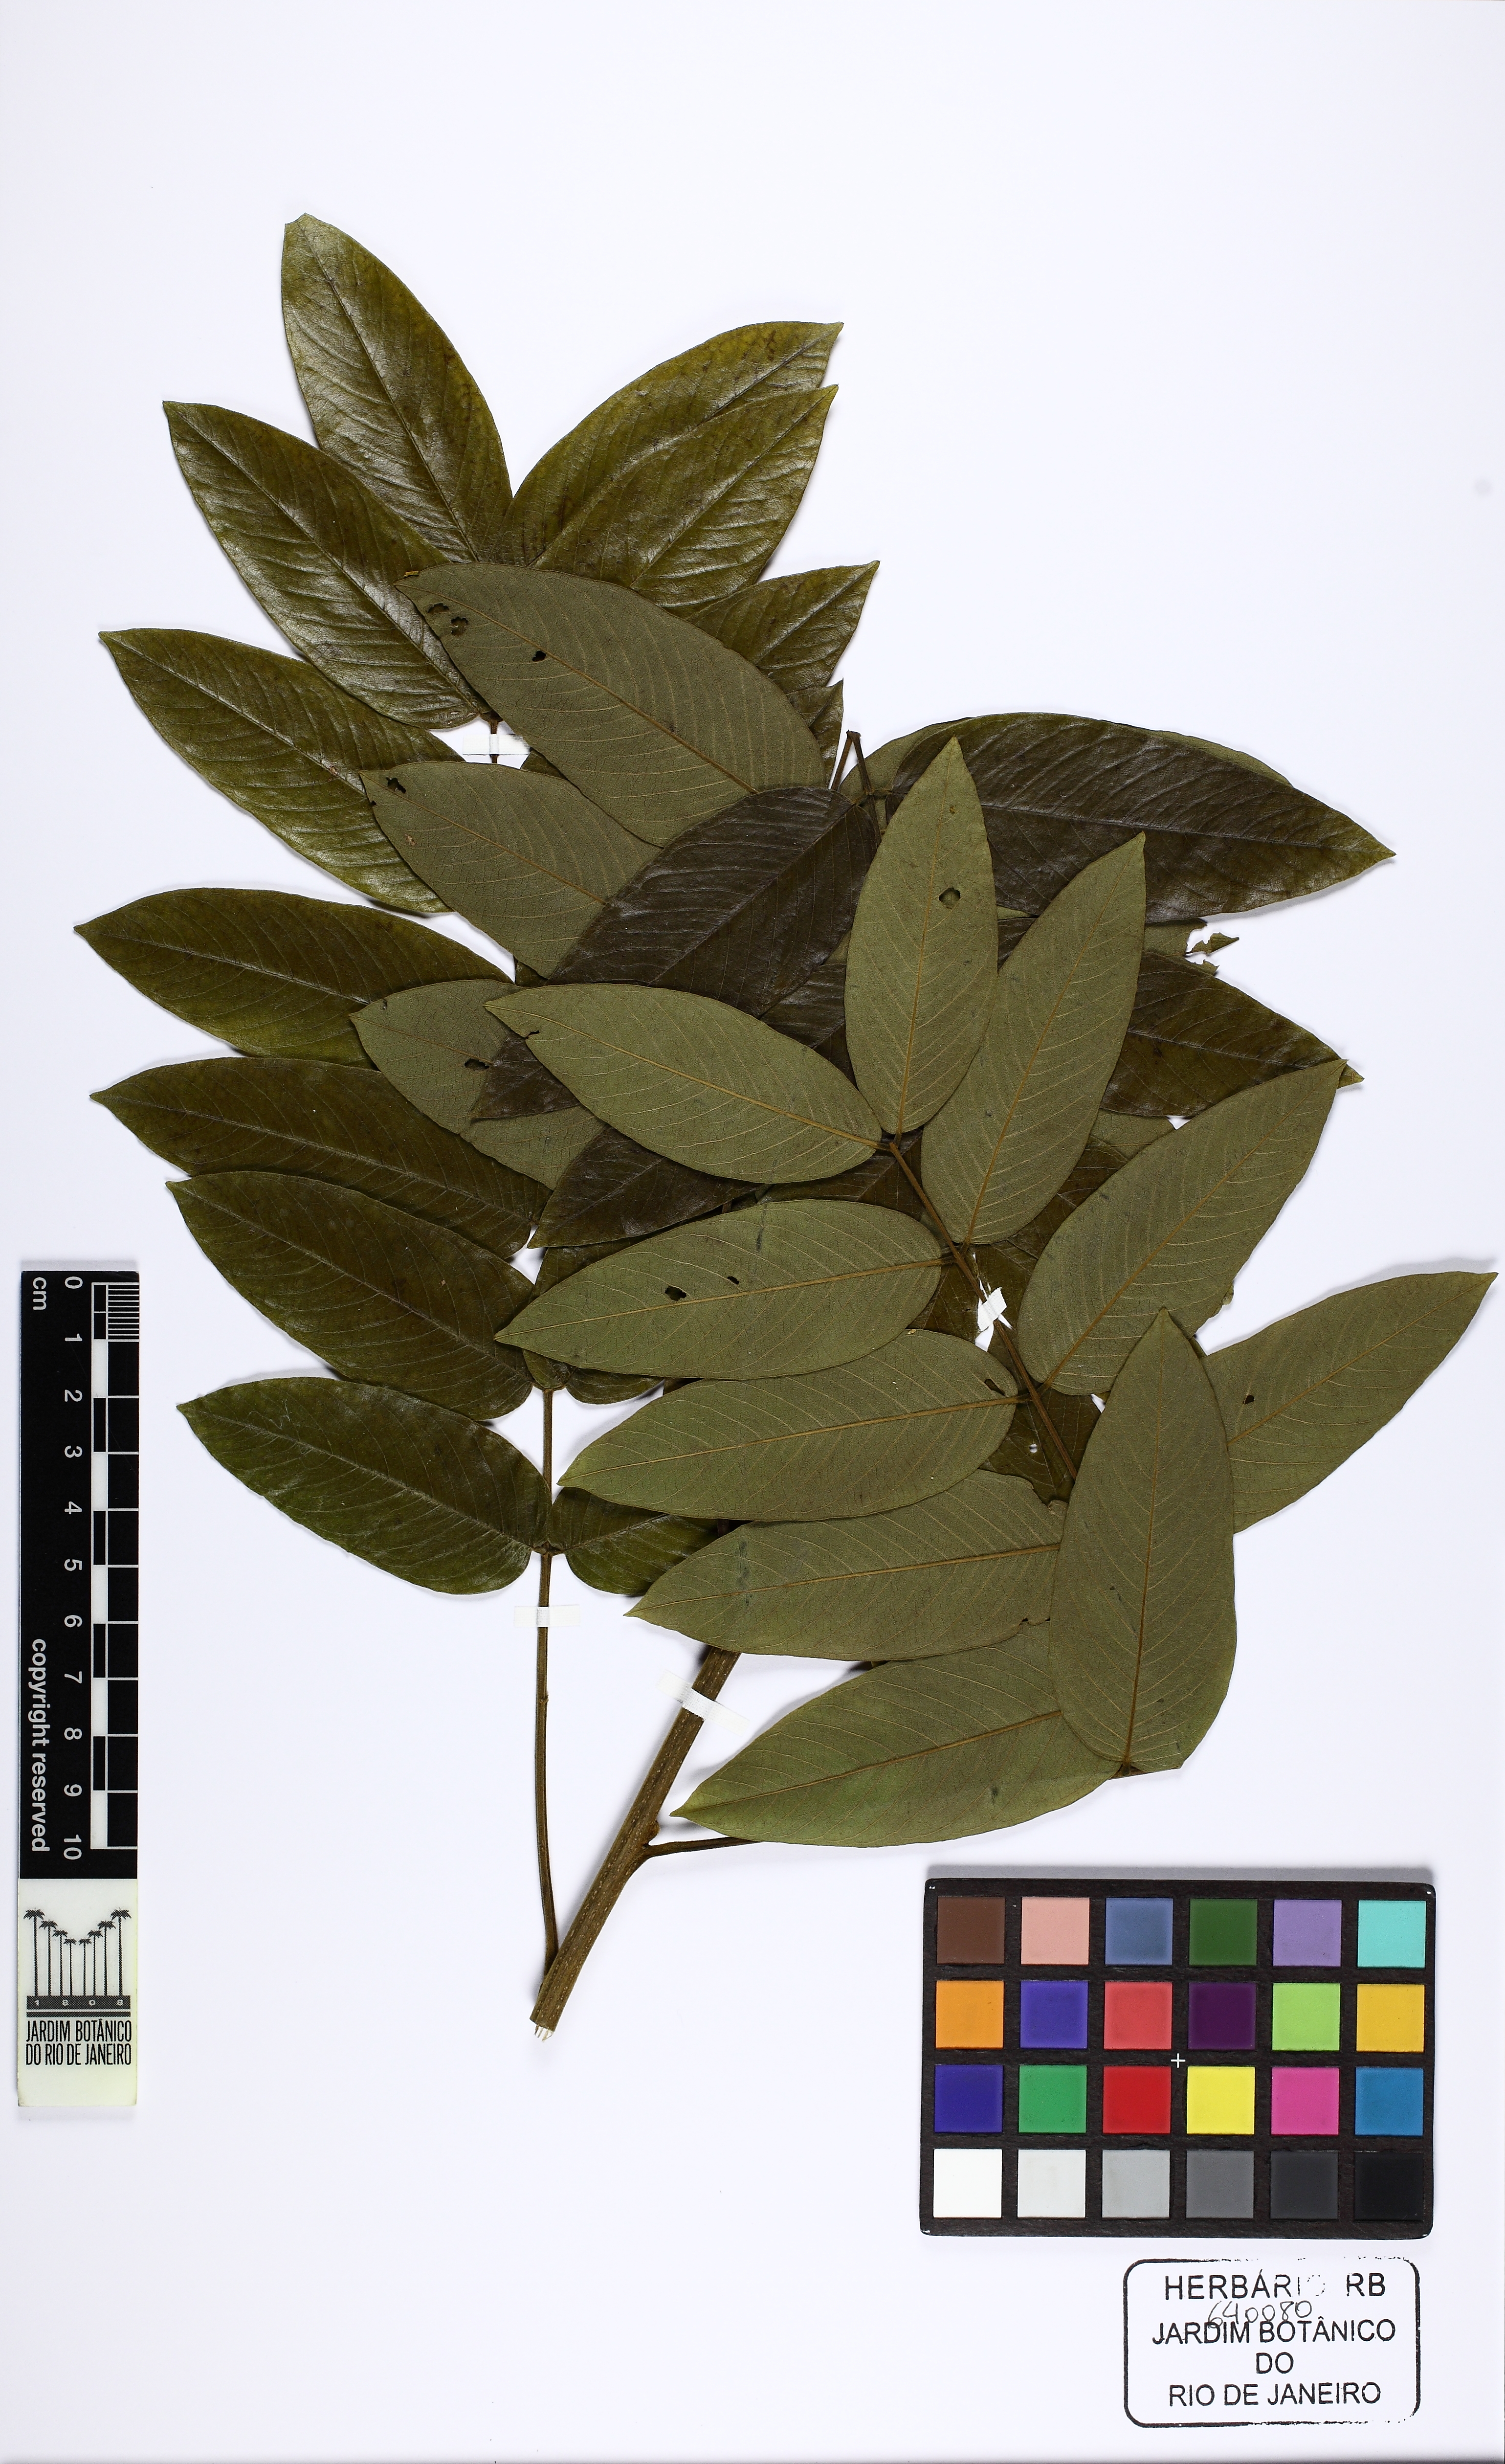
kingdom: Plantae
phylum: Tracheophyta
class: Magnoliopsida
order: Fabales
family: Fabaceae
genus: Senna
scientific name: Senna silvestris
